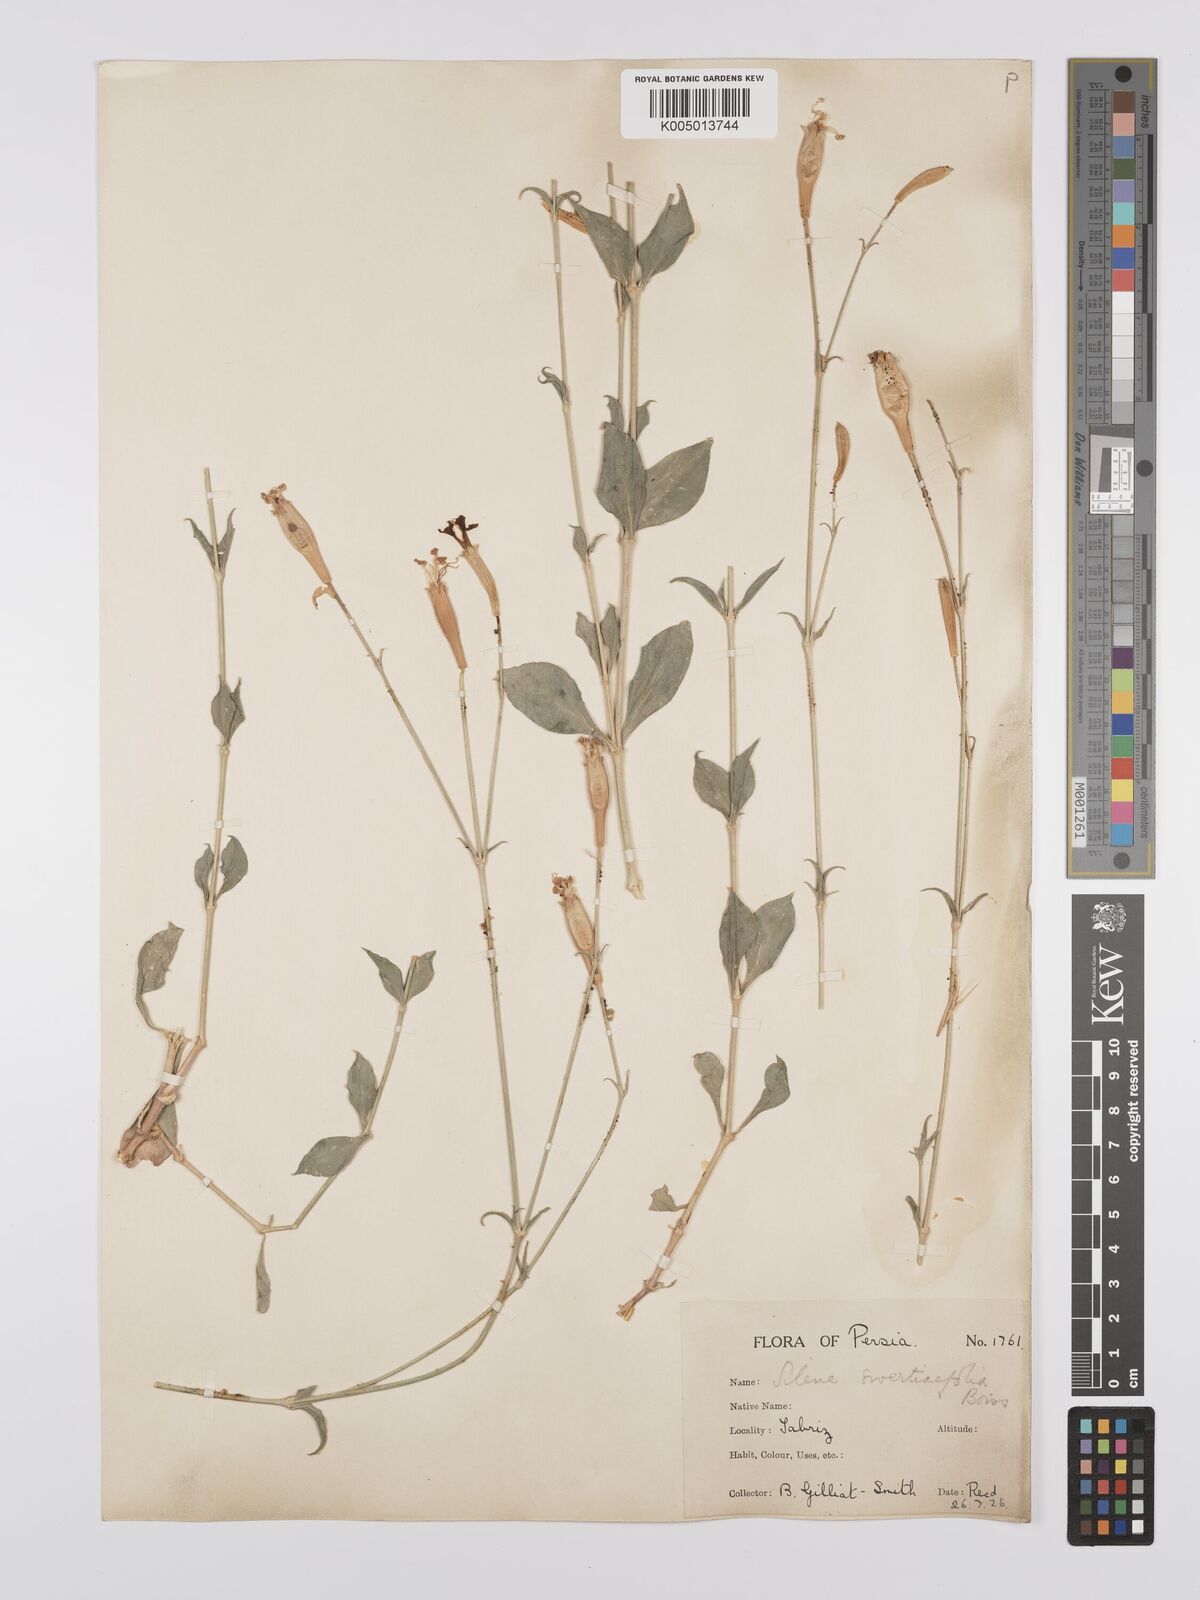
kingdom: Plantae
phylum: Tracheophyta
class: Magnoliopsida
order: Caryophyllales
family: Caryophyllaceae
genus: Silene
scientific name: Silene swertiifolia
